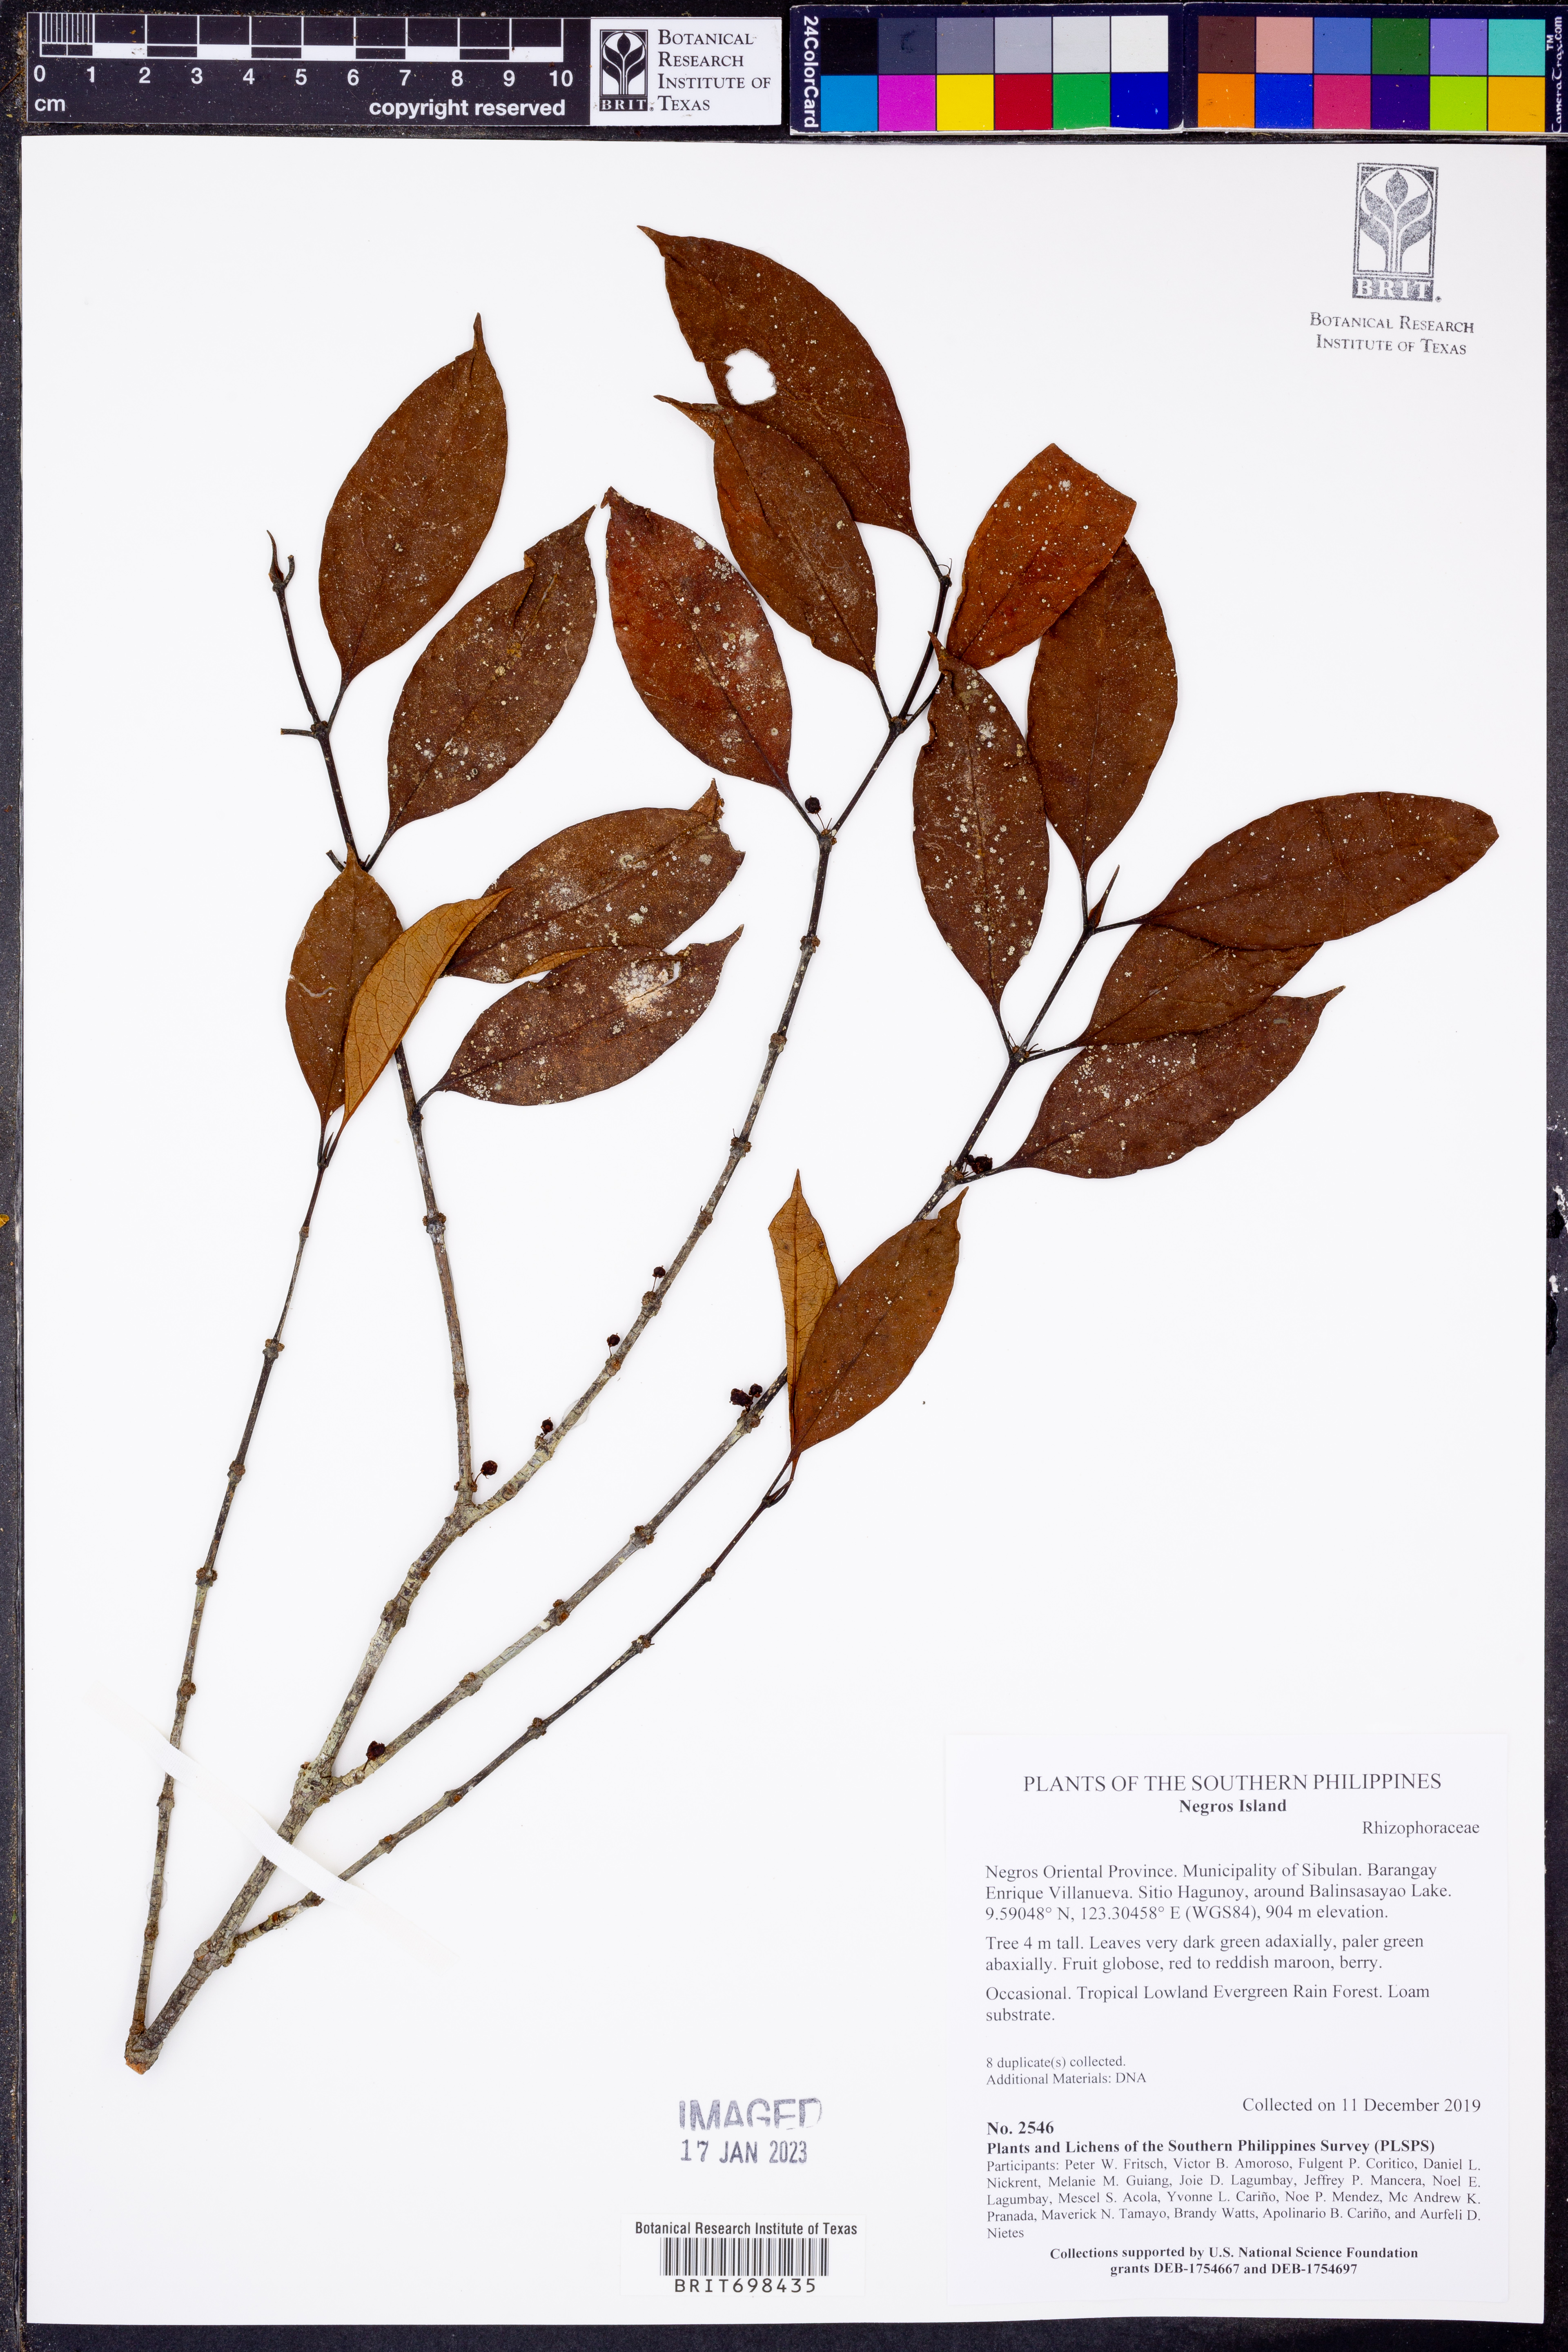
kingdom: Plantae
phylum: Tracheophyta
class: Magnoliopsida
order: Malpighiales
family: Rhizophoraceae
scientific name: Rhizophoraceae
